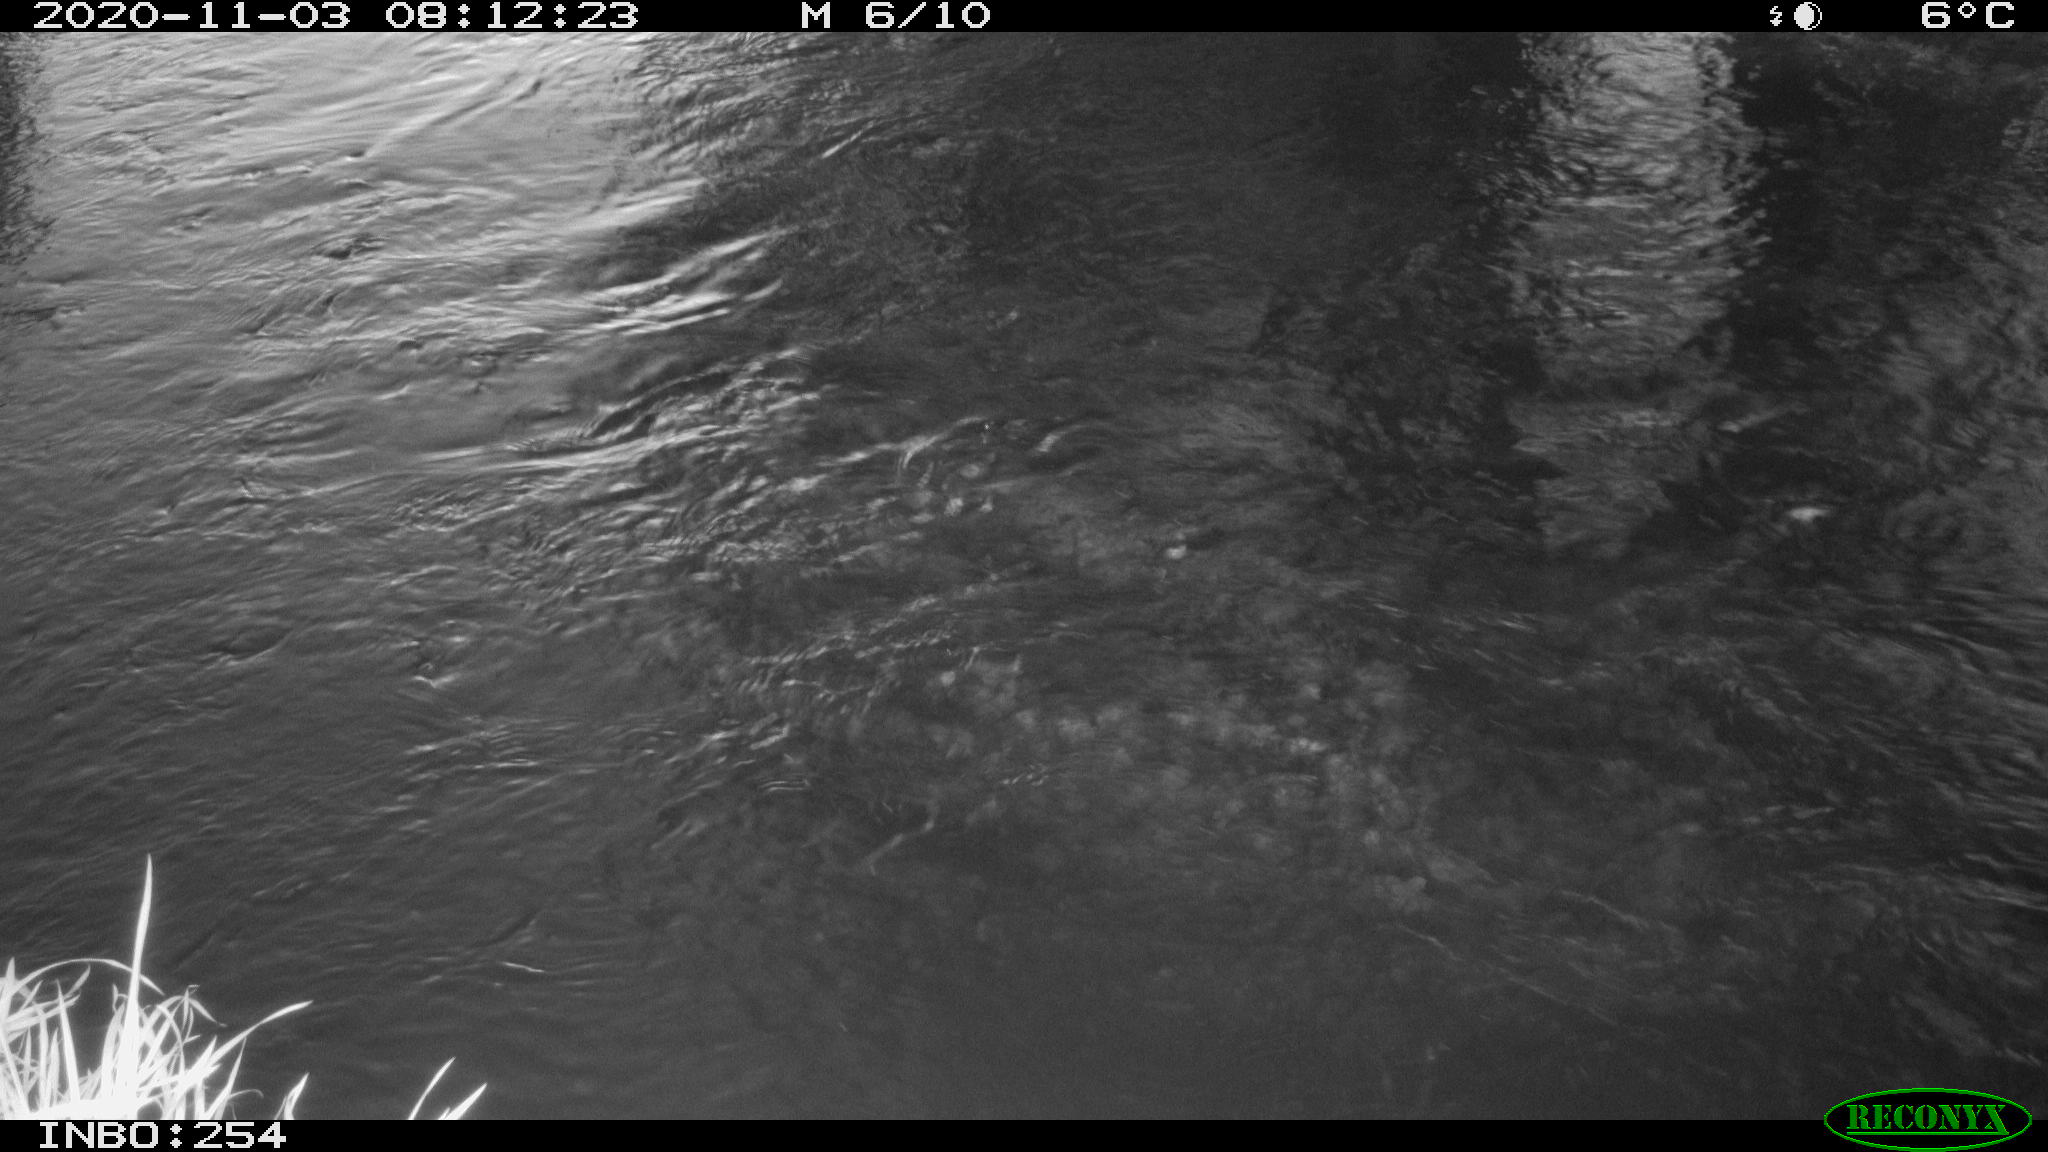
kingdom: Animalia
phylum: Chordata
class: Aves
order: Gruiformes
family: Rallidae
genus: Gallinula
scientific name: Gallinula chloropus
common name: Common moorhen
